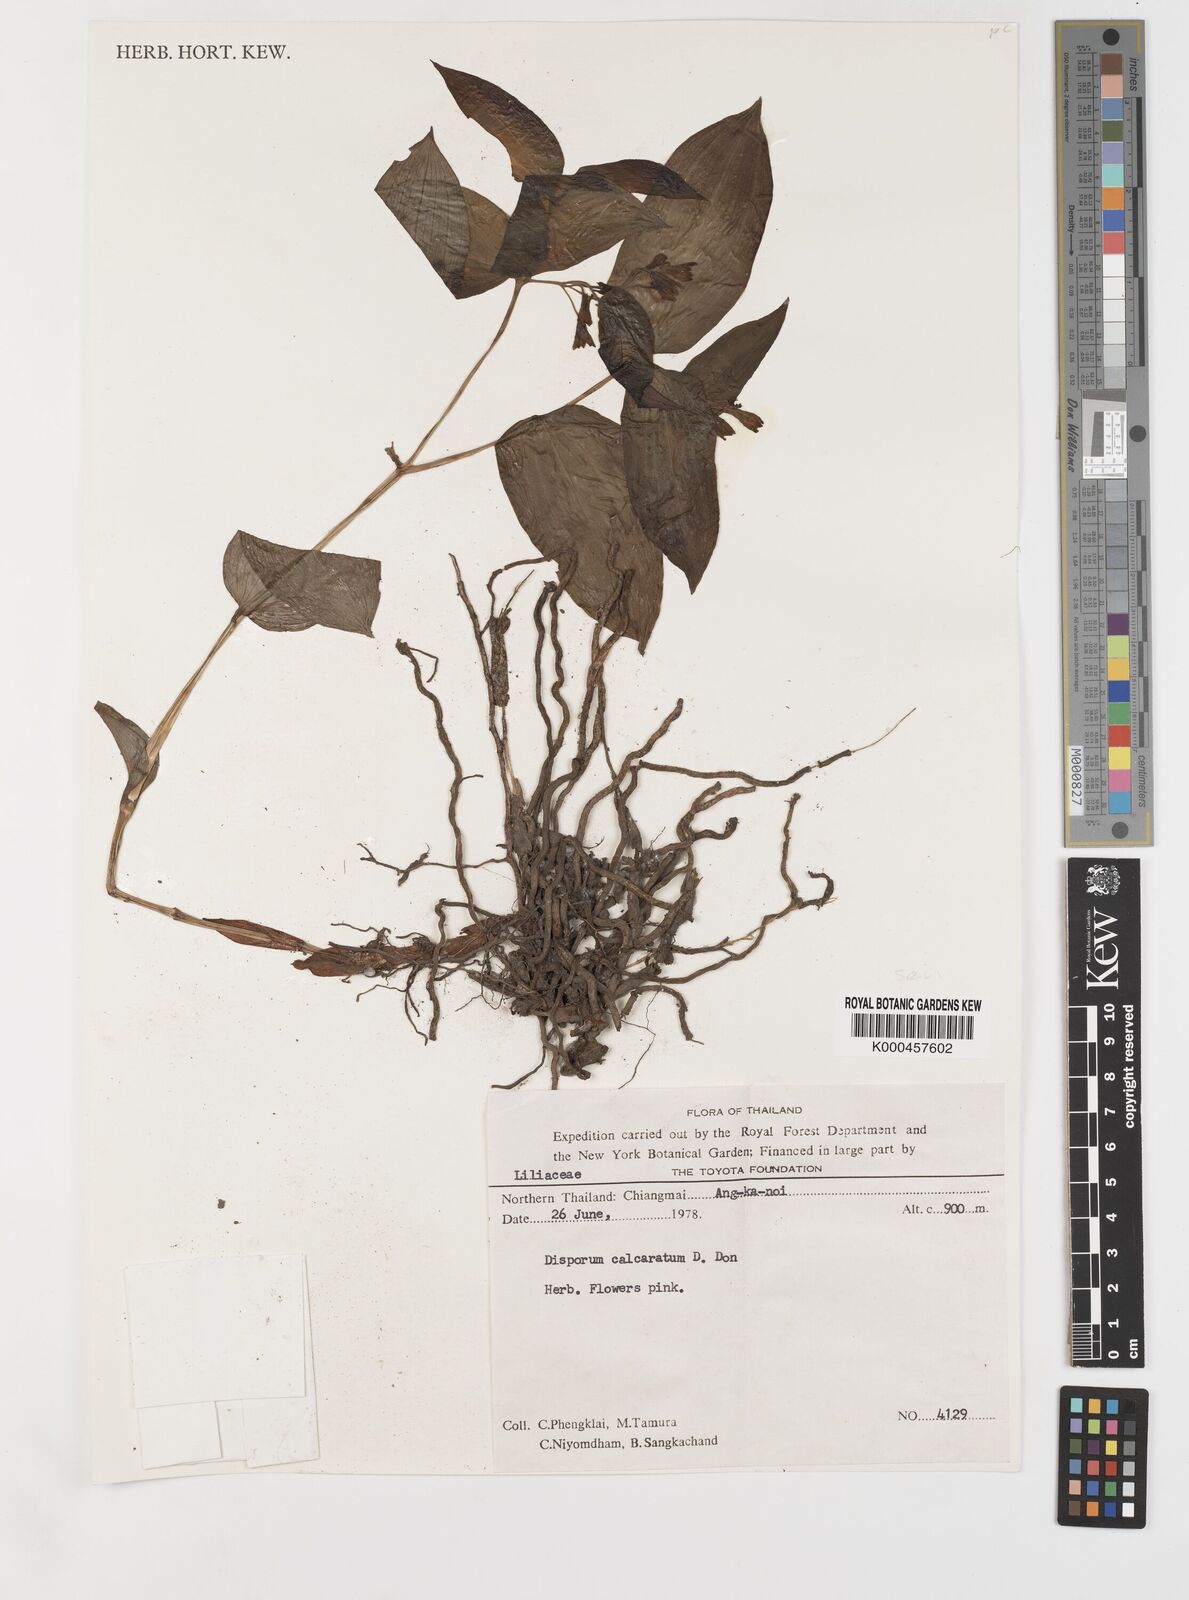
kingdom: Plantae
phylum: Tracheophyta
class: Liliopsida
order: Liliales
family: Colchicaceae
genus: Disporum
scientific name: Disporum calcaratum
